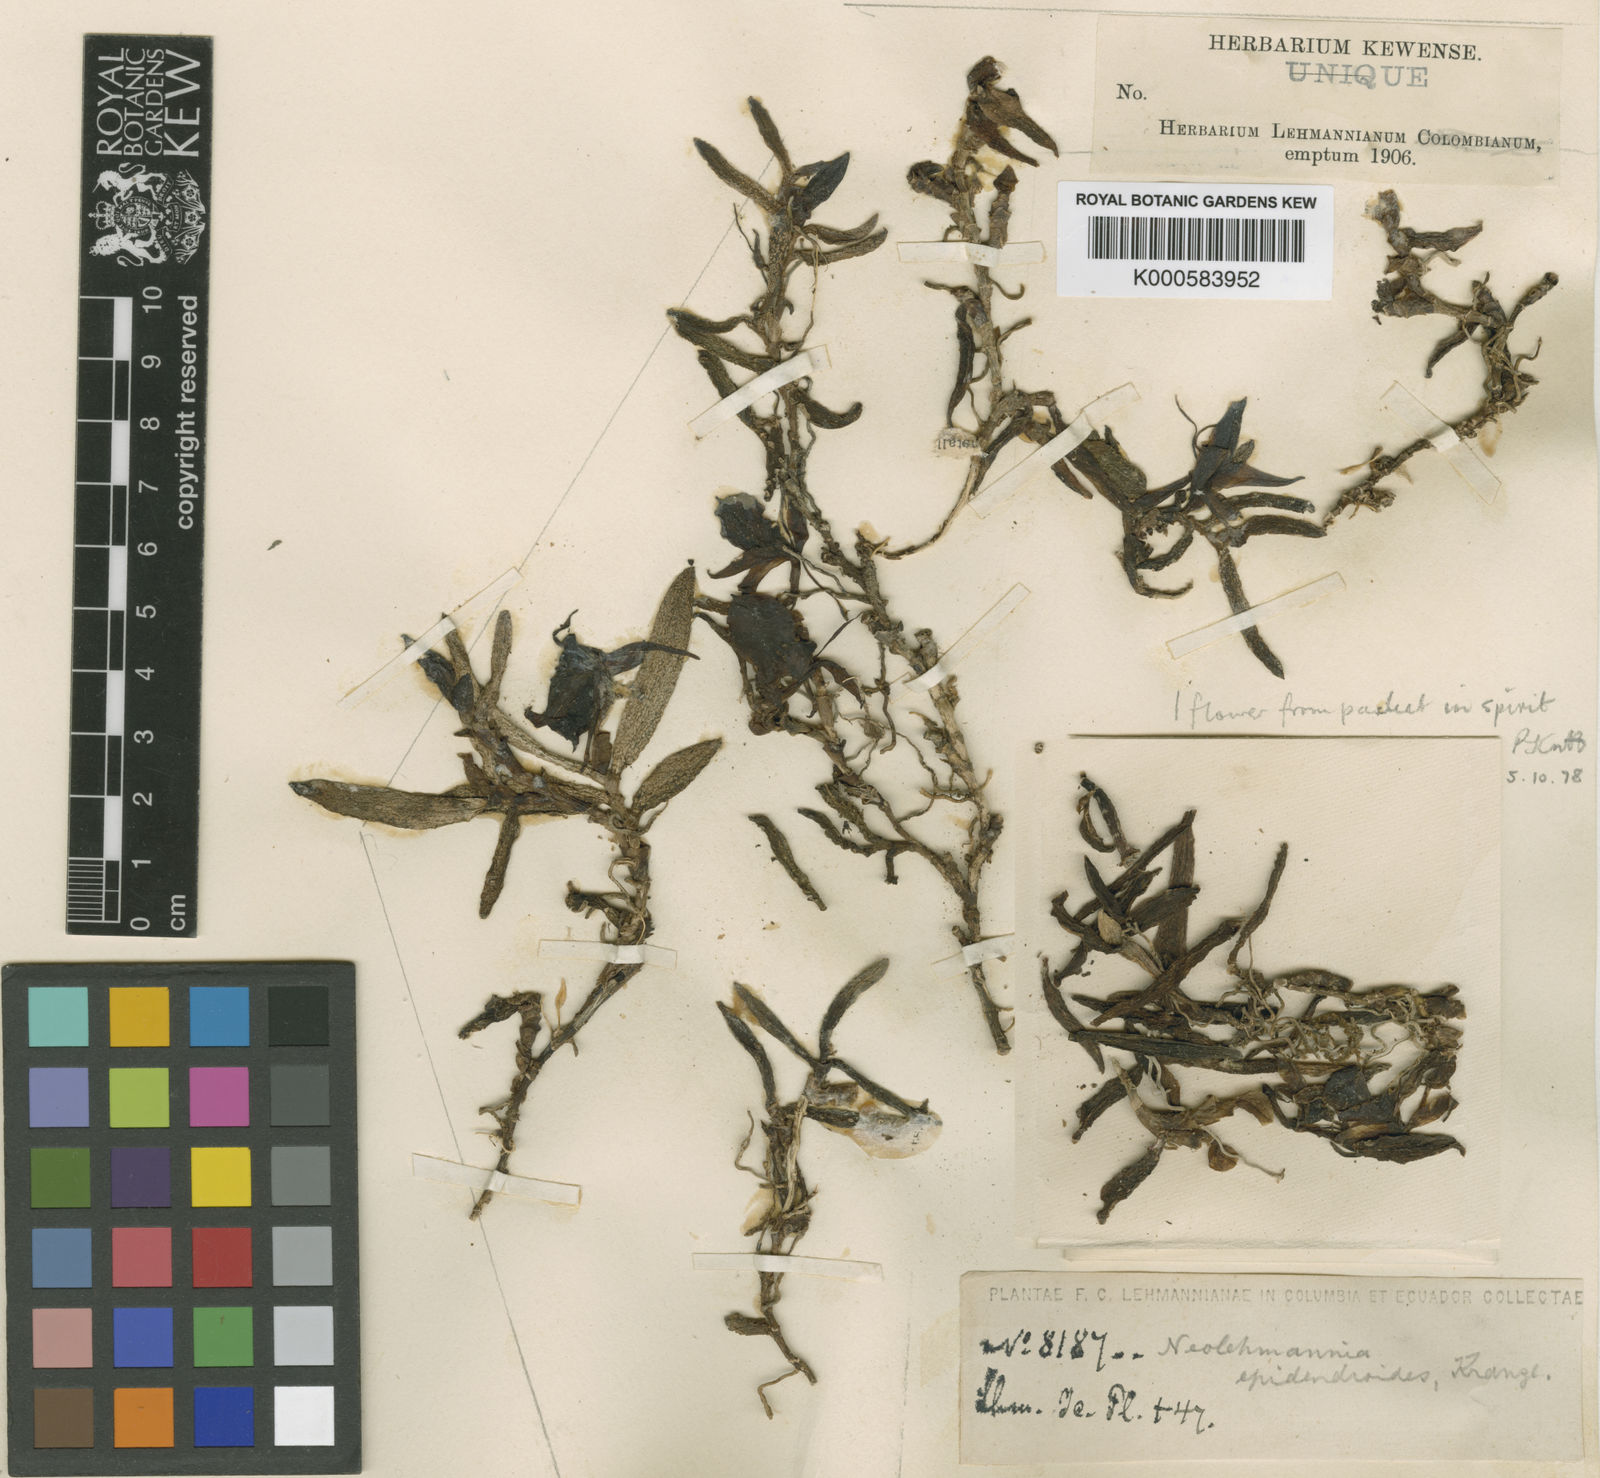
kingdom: Plantae
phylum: Tracheophyta
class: Liliopsida
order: Asparagales
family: Orchidaceae
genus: Epidendrum
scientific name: Epidendrum neolehmannia
